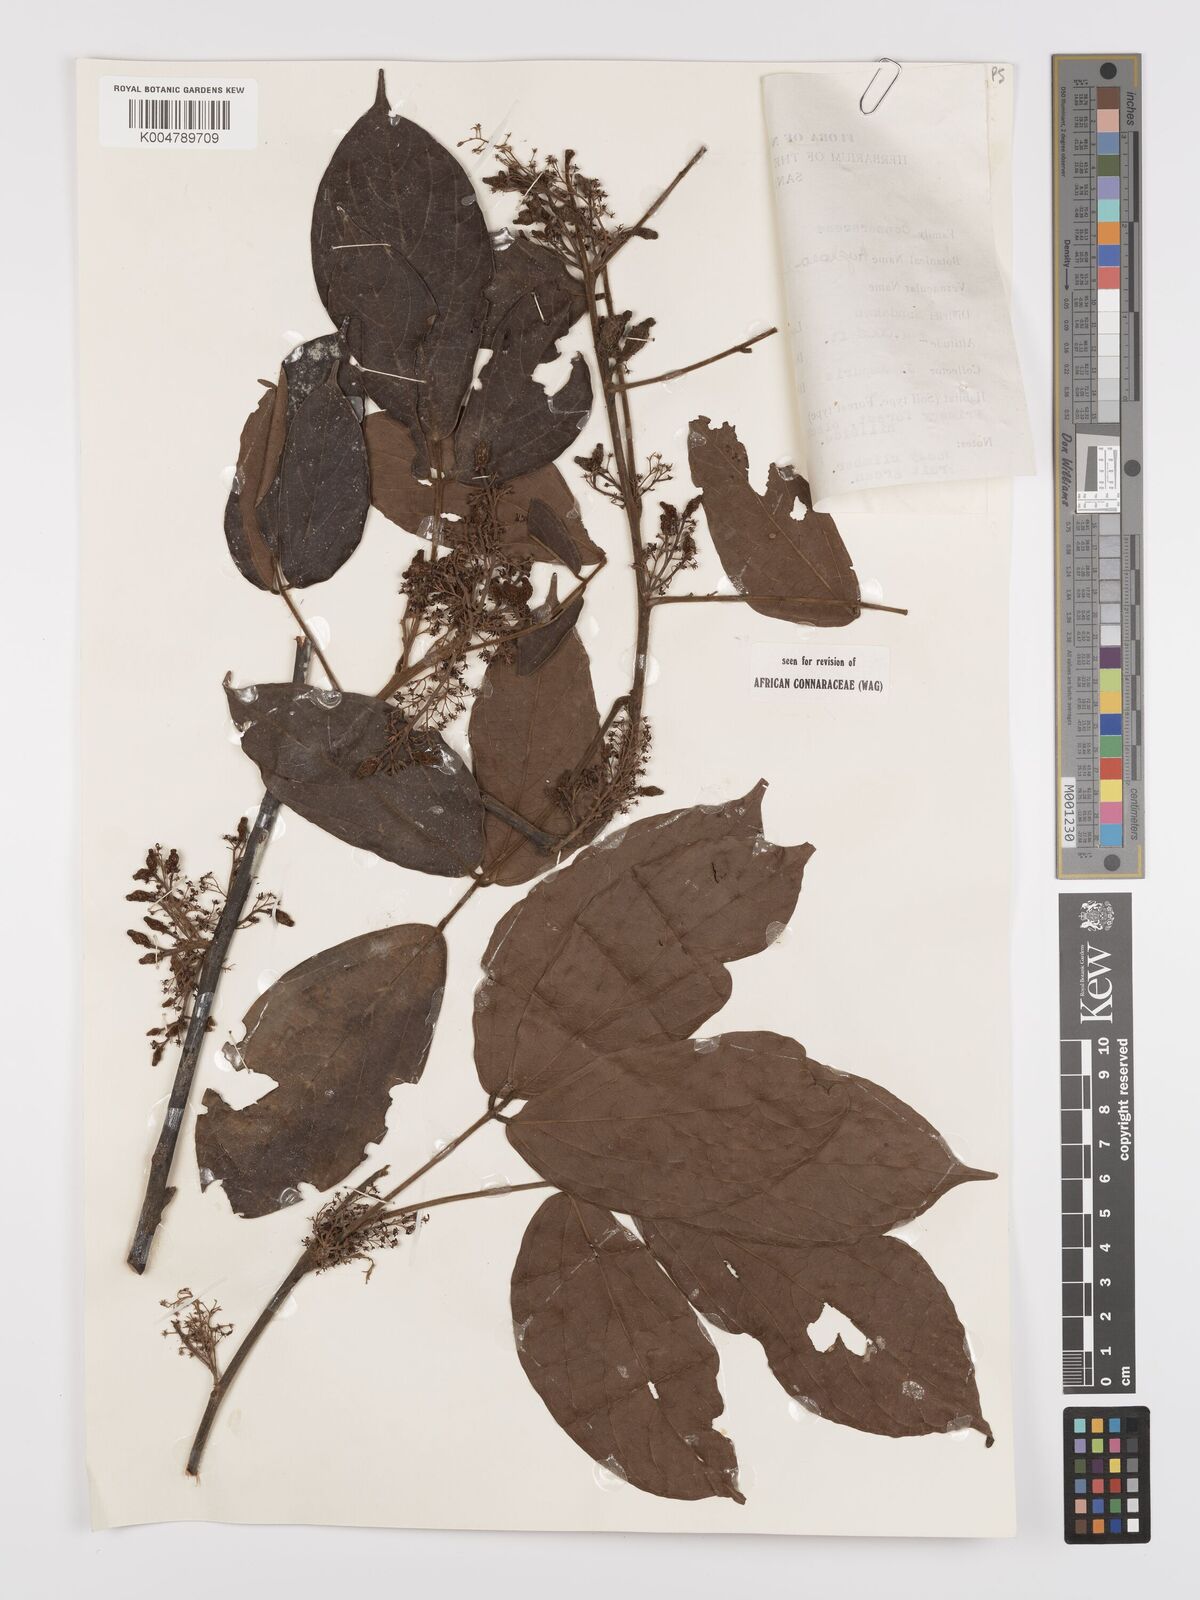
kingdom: Plantae
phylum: Tracheophyta
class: Magnoliopsida
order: Oxalidales
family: Connaraceae
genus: Agelaea
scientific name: Agelaea borneensis
